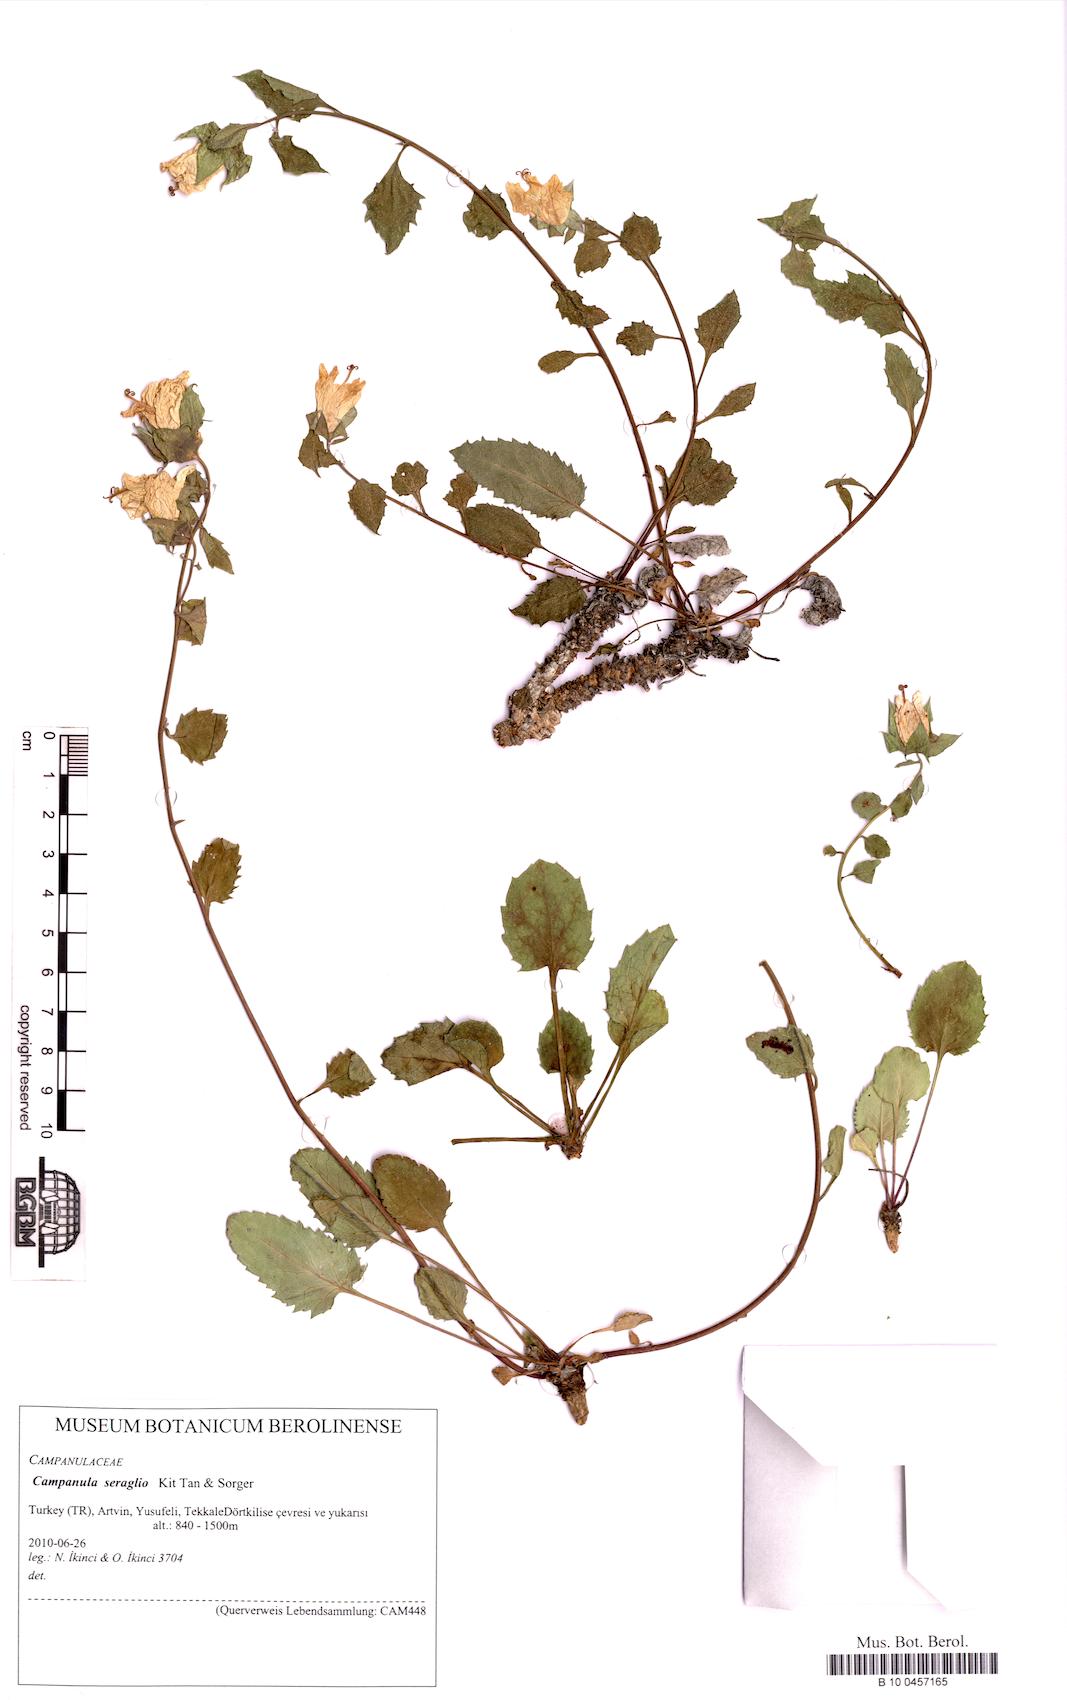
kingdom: Plantae
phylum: Tracheophyta
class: Magnoliopsida
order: Asterales
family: Campanulaceae
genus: Campanula
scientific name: Campanula seraglio
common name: Serail bellflower
